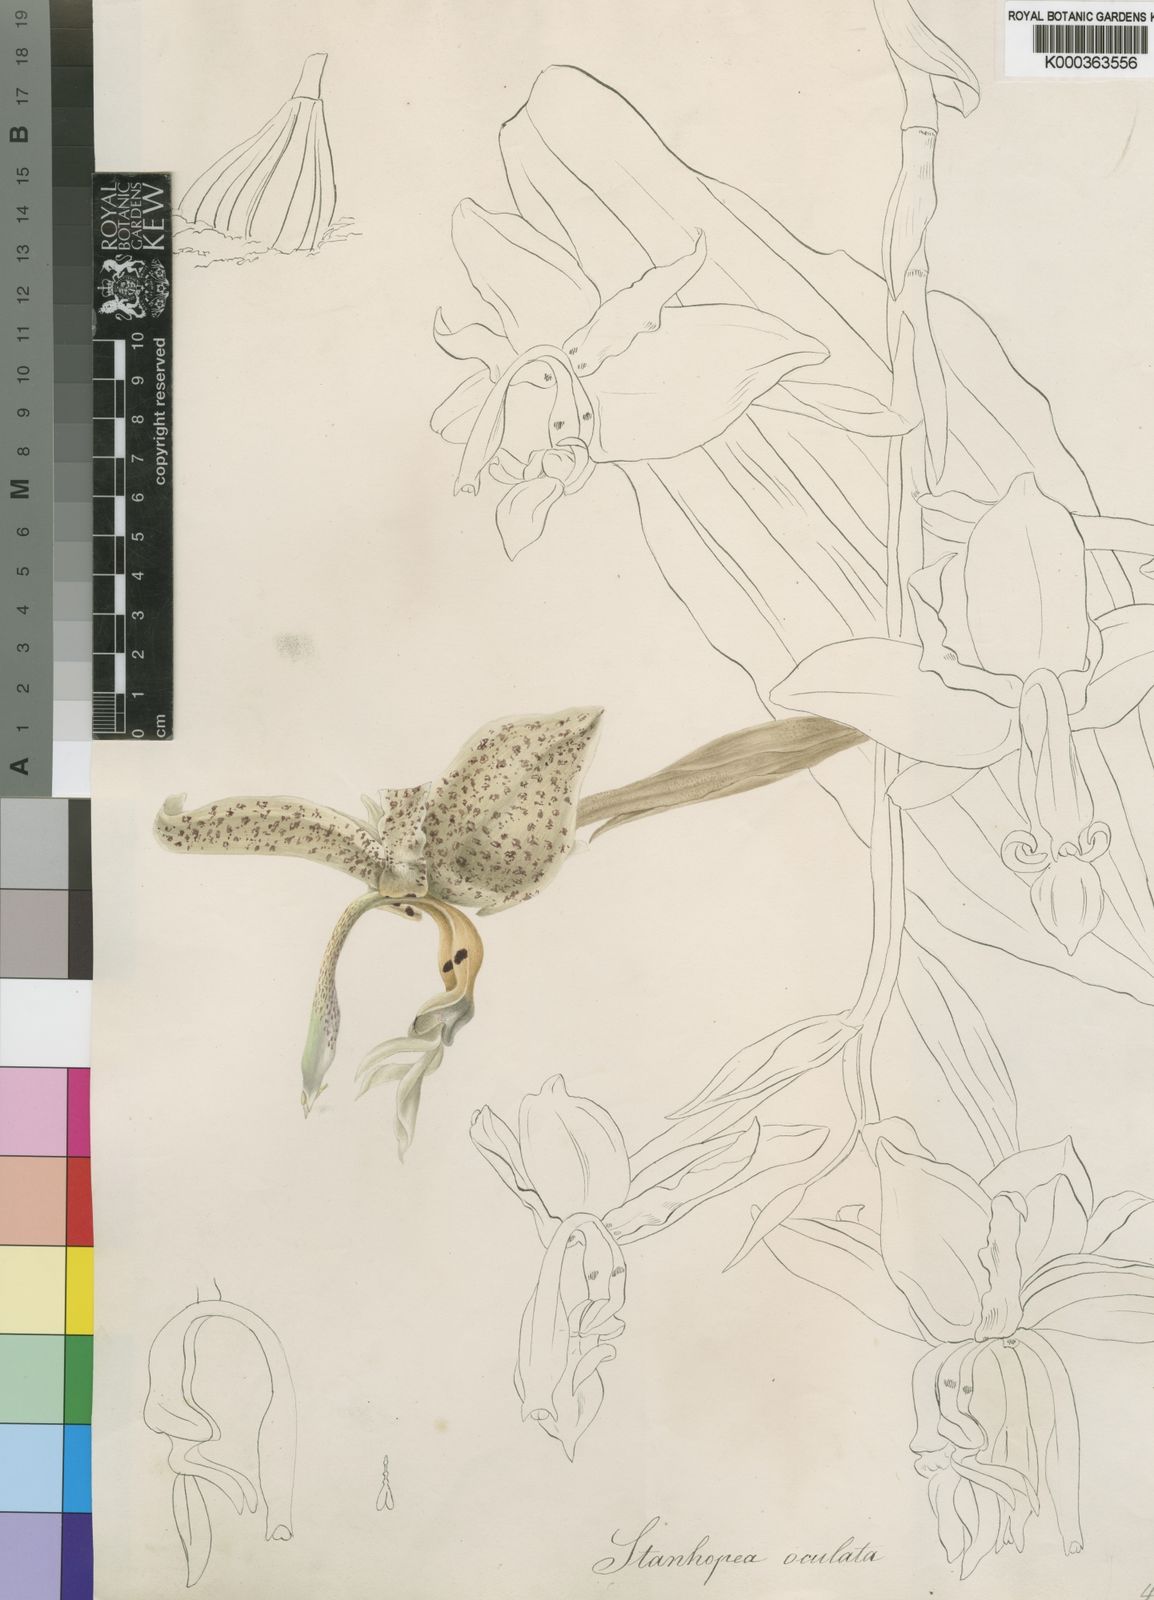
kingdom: Plantae
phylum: Tracheophyta
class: Liliopsida
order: Asparagales
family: Orchidaceae
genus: Stanhopea
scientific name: Stanhopea oculata
